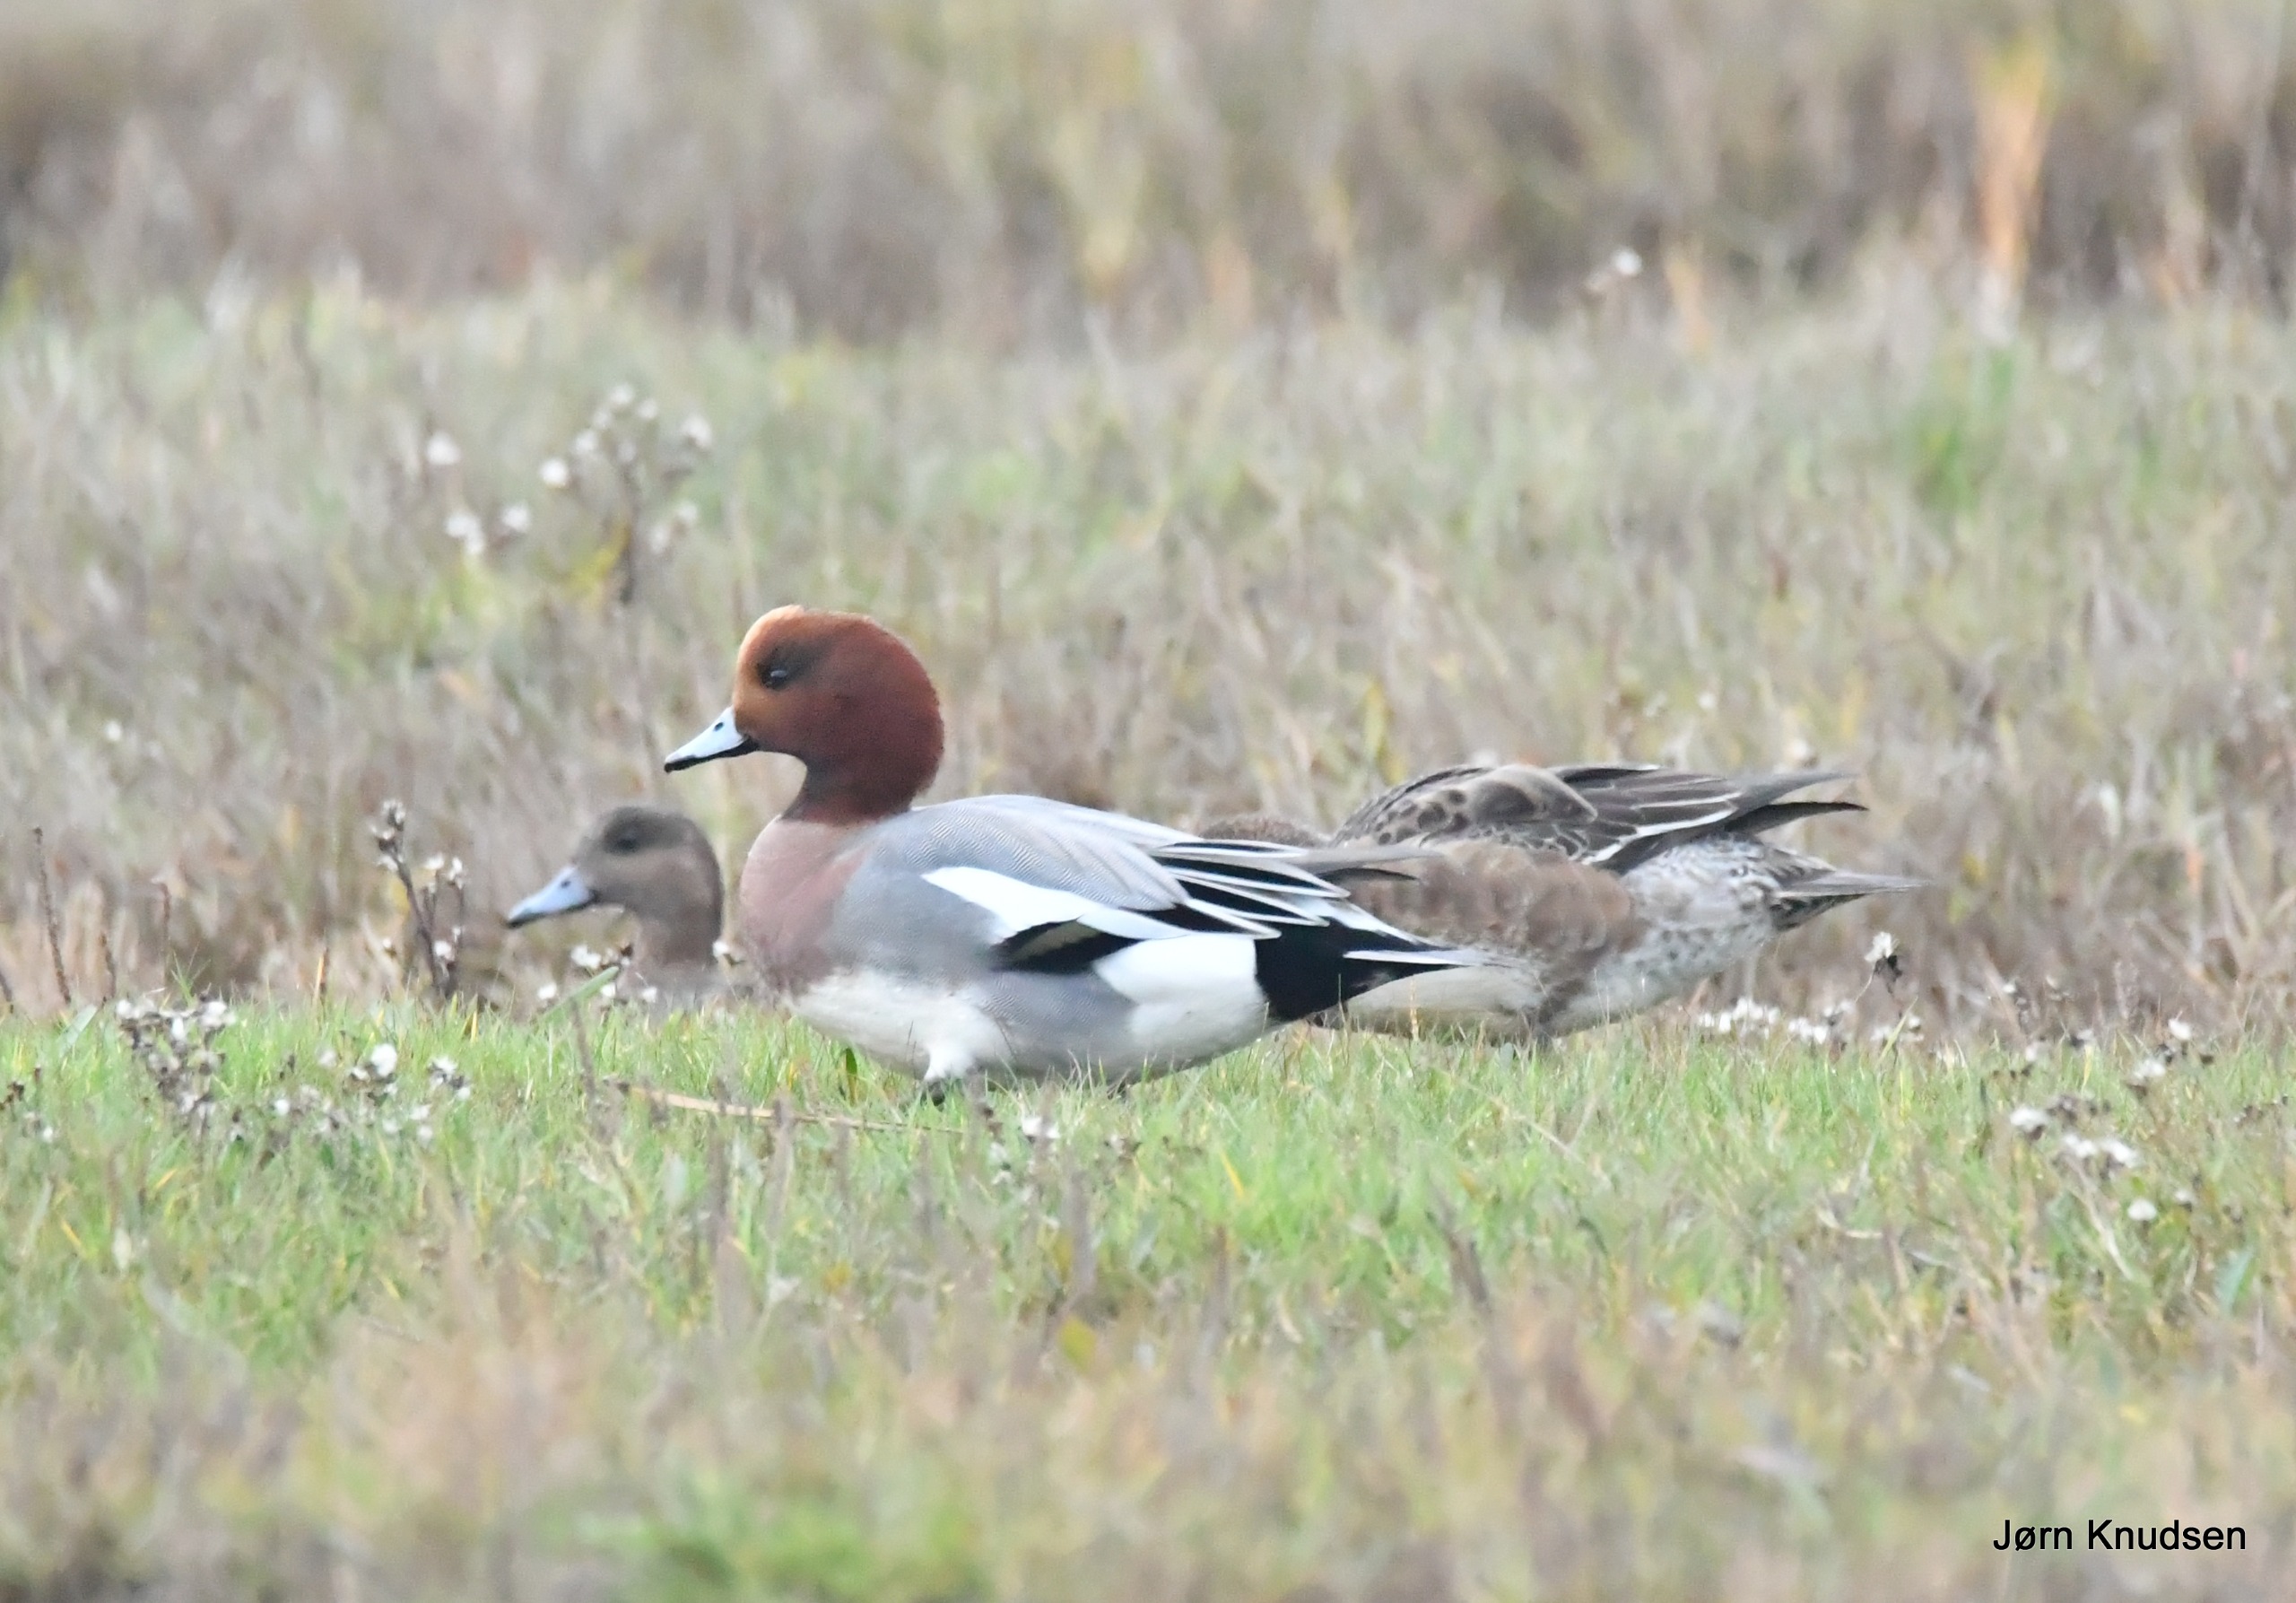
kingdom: Animalia
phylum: Chordata
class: Aves
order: Anseriformes
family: Anatidae
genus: Mareca
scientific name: Mareca penelope
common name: Pibeand
